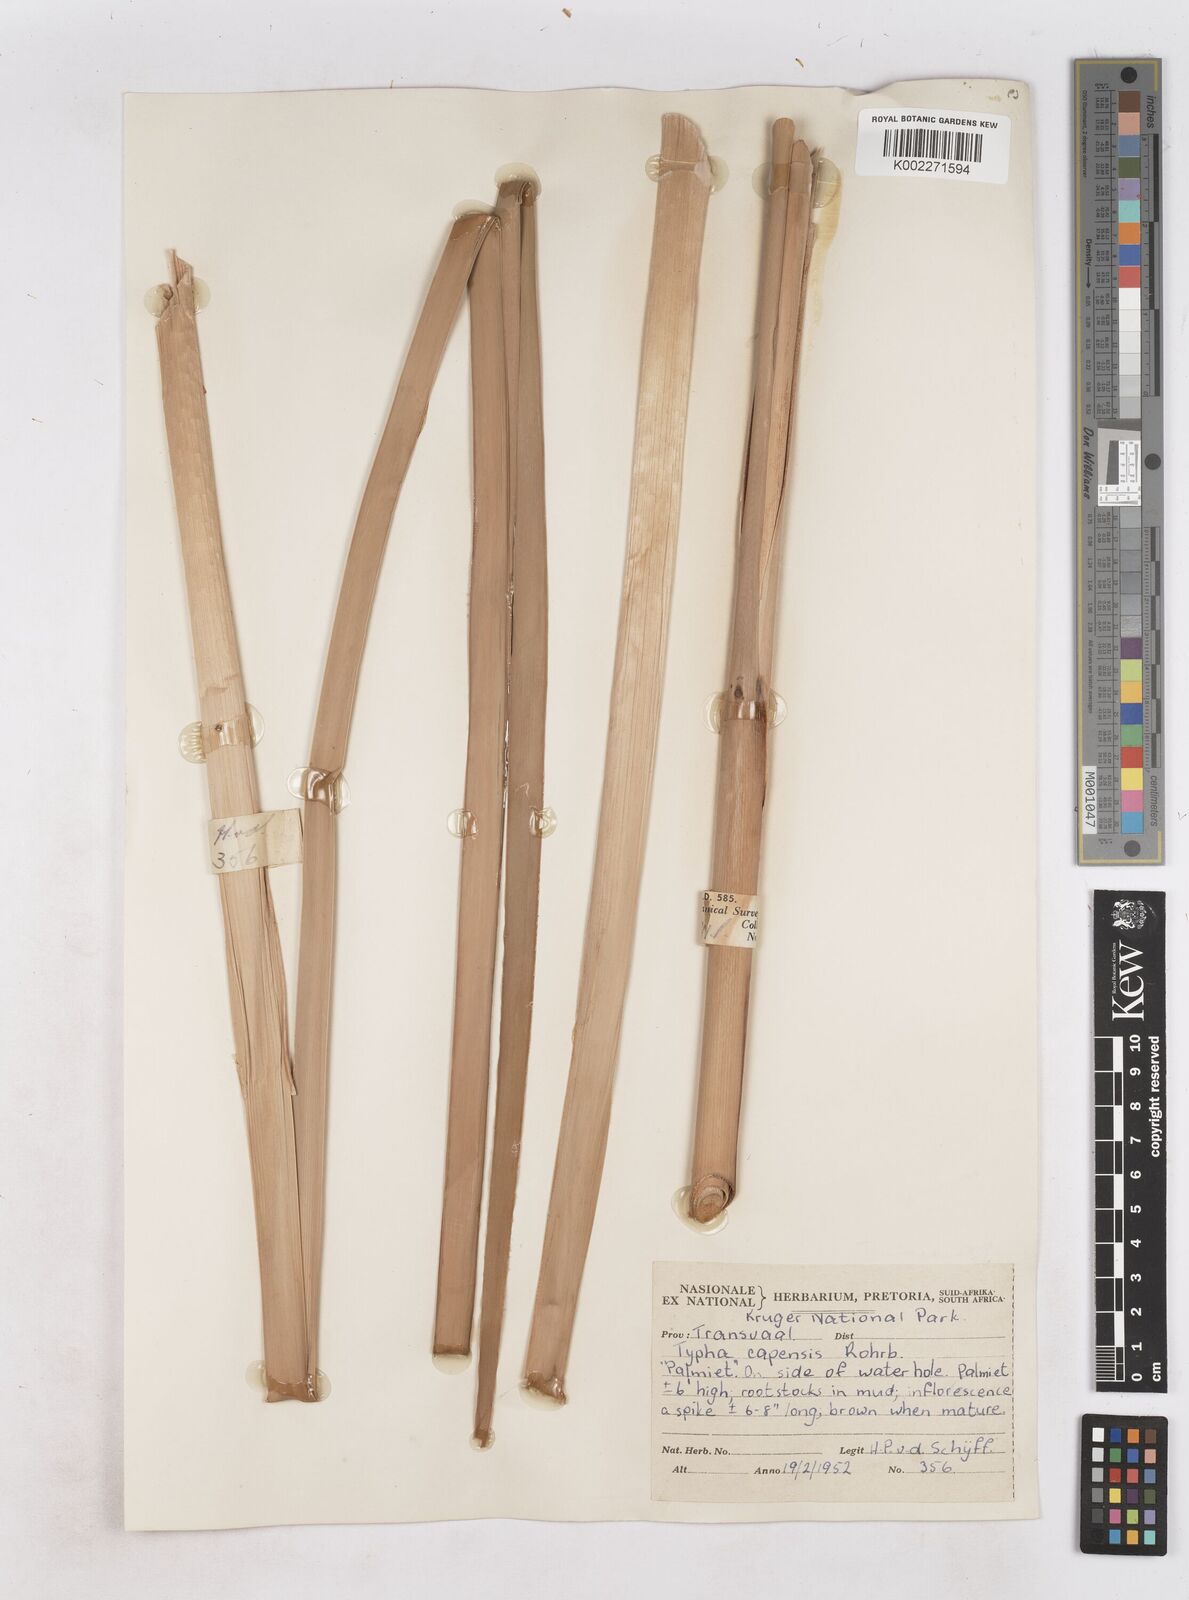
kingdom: Plantae
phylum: Tracheophyta
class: Liliopsida
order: Poales
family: Typhaceae
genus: Typha
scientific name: Typha capensis
